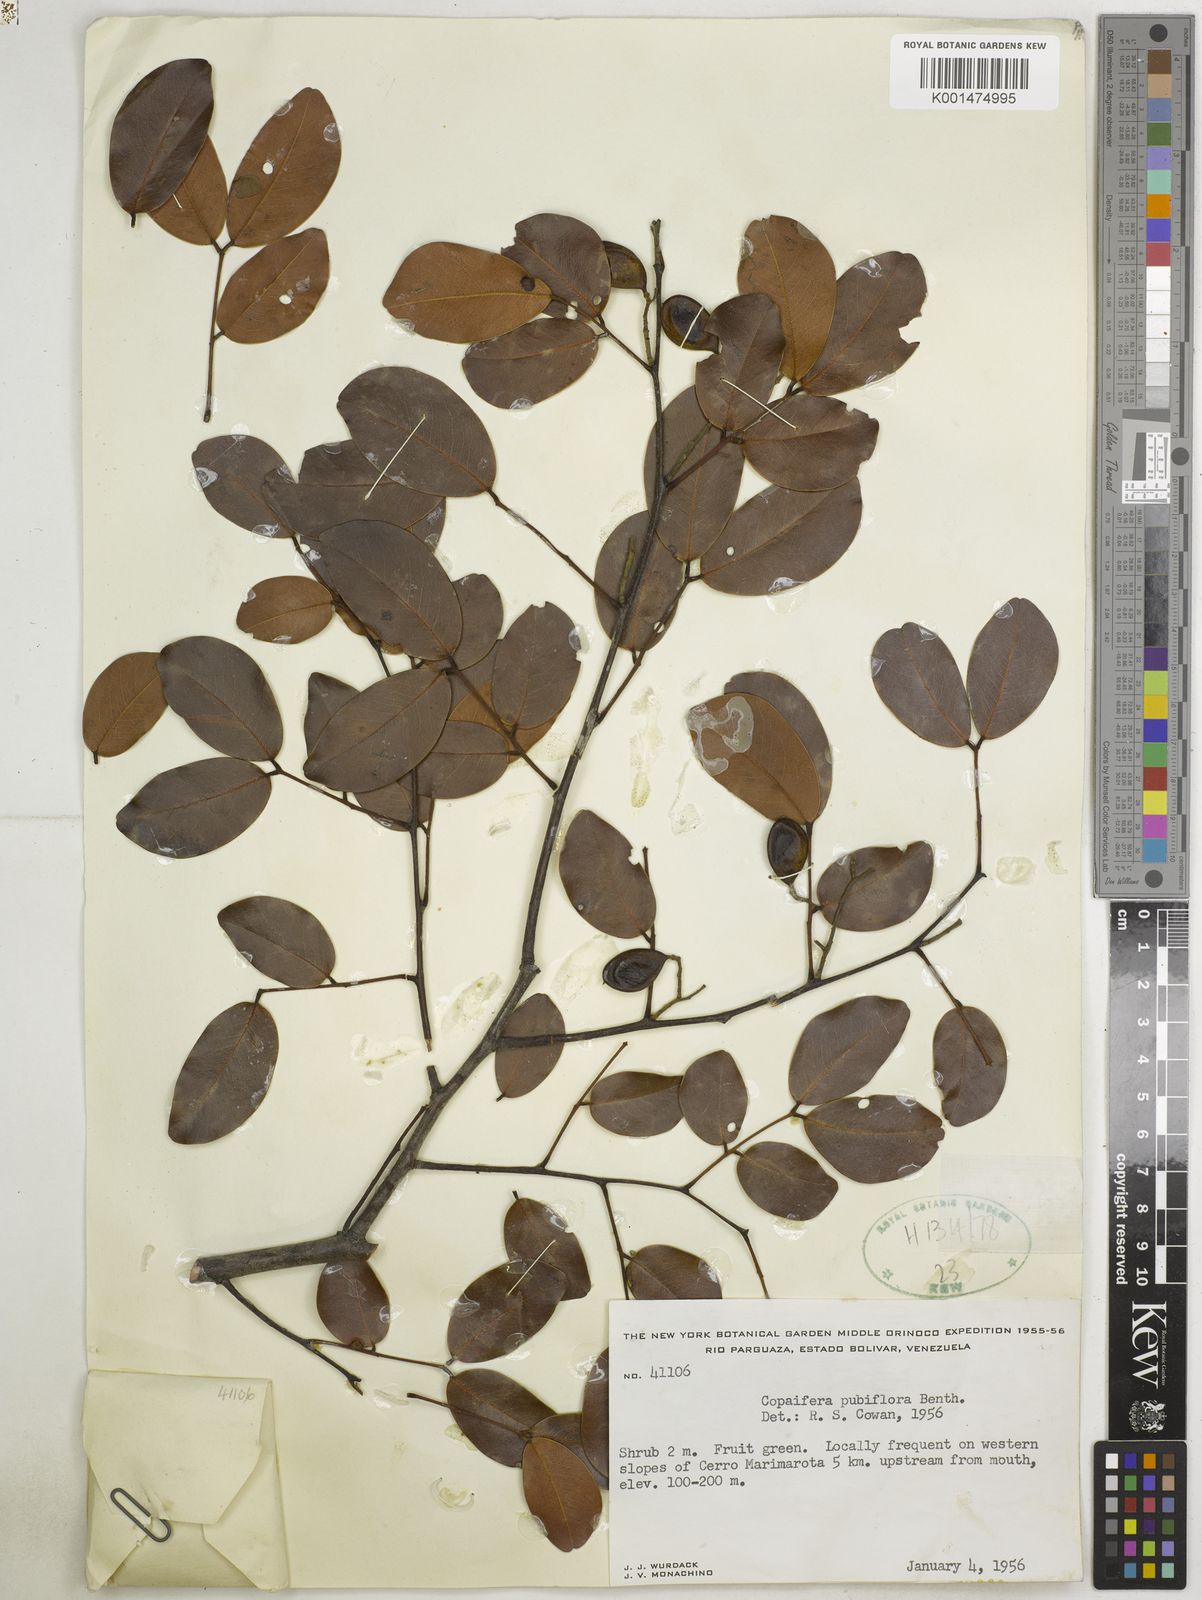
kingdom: Plantae
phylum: Tracheophyta
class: Magnoliopsida
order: Fabales
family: Fabaceae
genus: Copaifera
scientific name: Copaifera pubiflora
